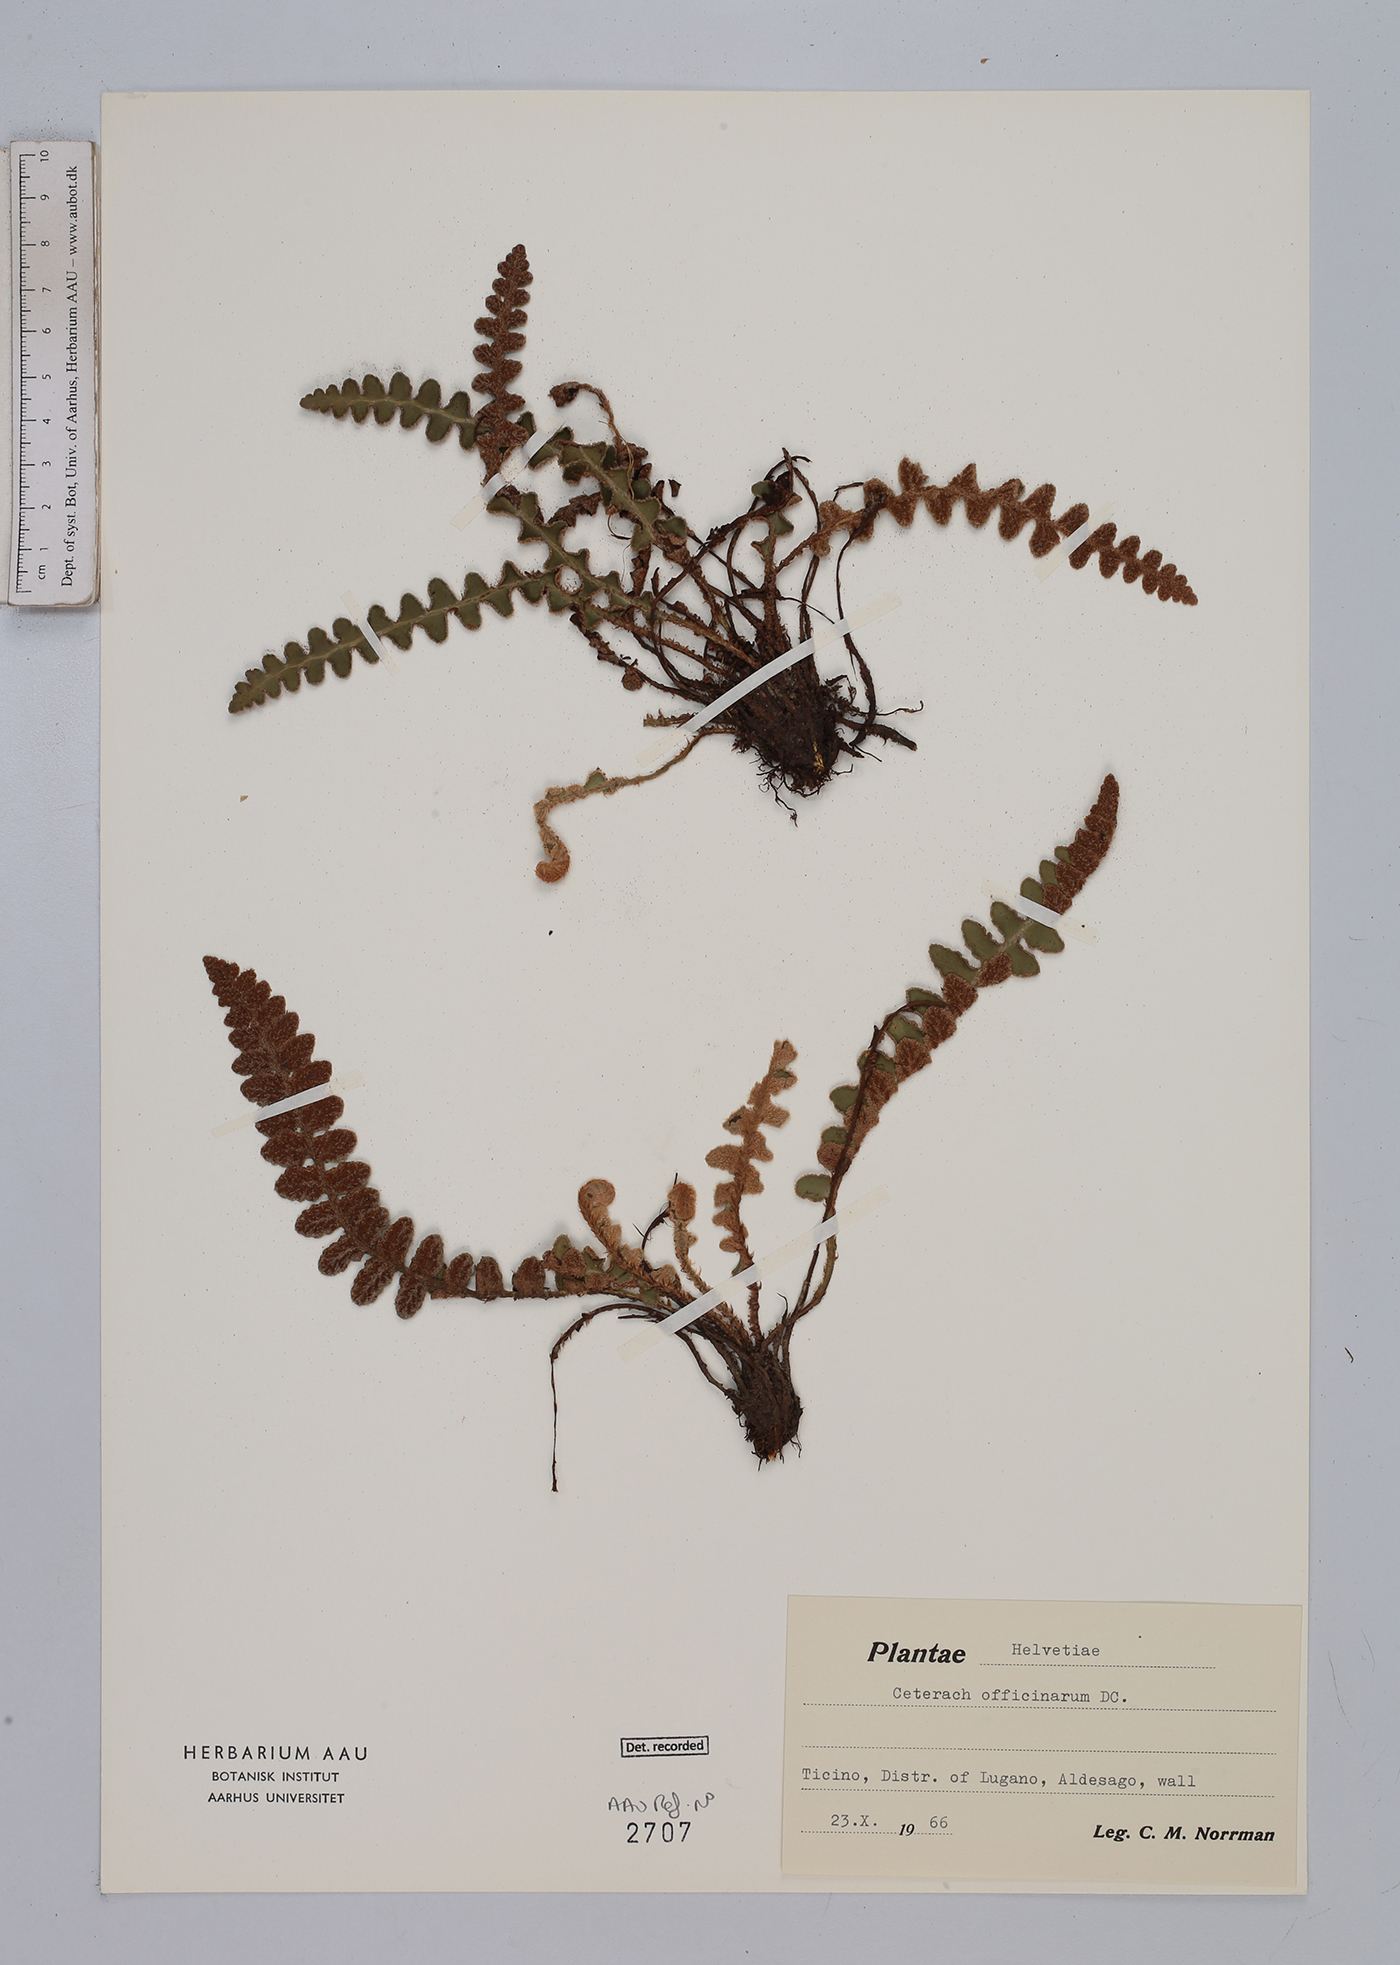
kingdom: Plantae
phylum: Tracheophyta
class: Polypodiopsida
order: Polypodiales
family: Aspleniaceae
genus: Asplenium
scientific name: Asplenium ceterach
